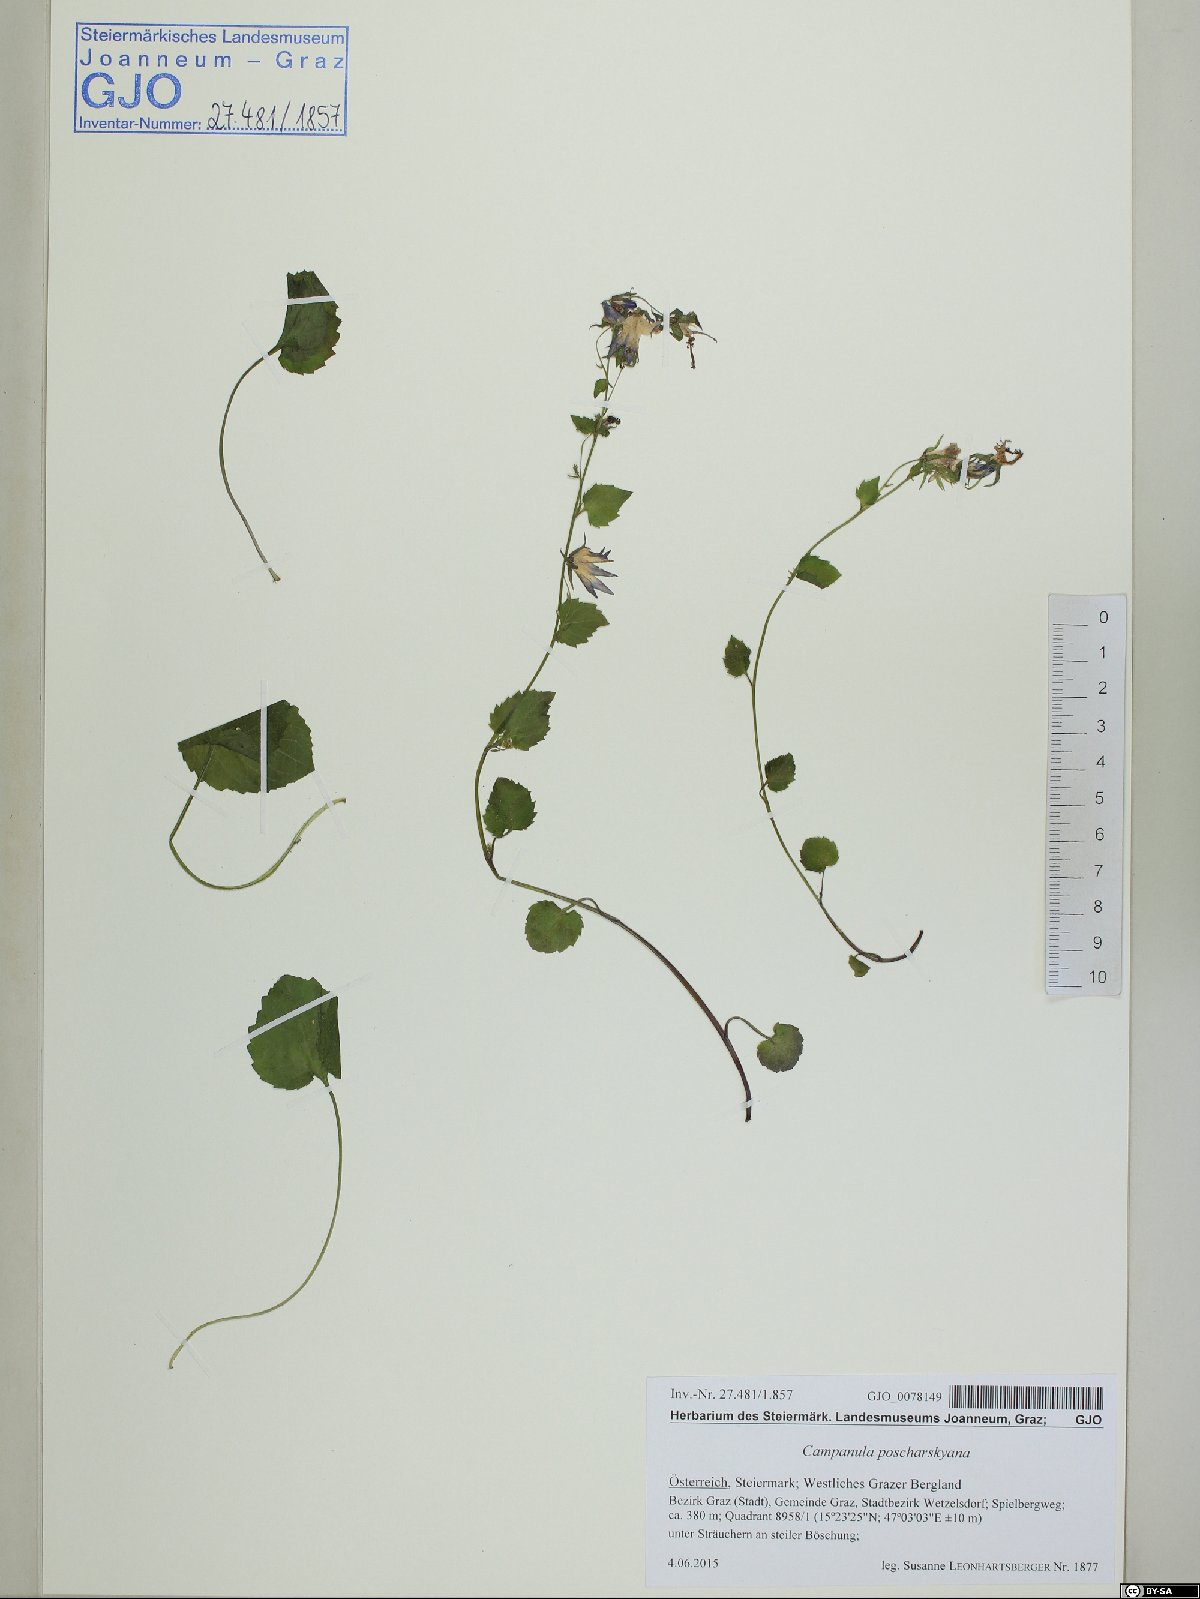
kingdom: Plantae
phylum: Tracheophyta
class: Magnoliopsida
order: Asterales
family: Campanulaceae
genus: Campanula
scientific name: Campanula poscharskyana
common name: Trailing bellflower
